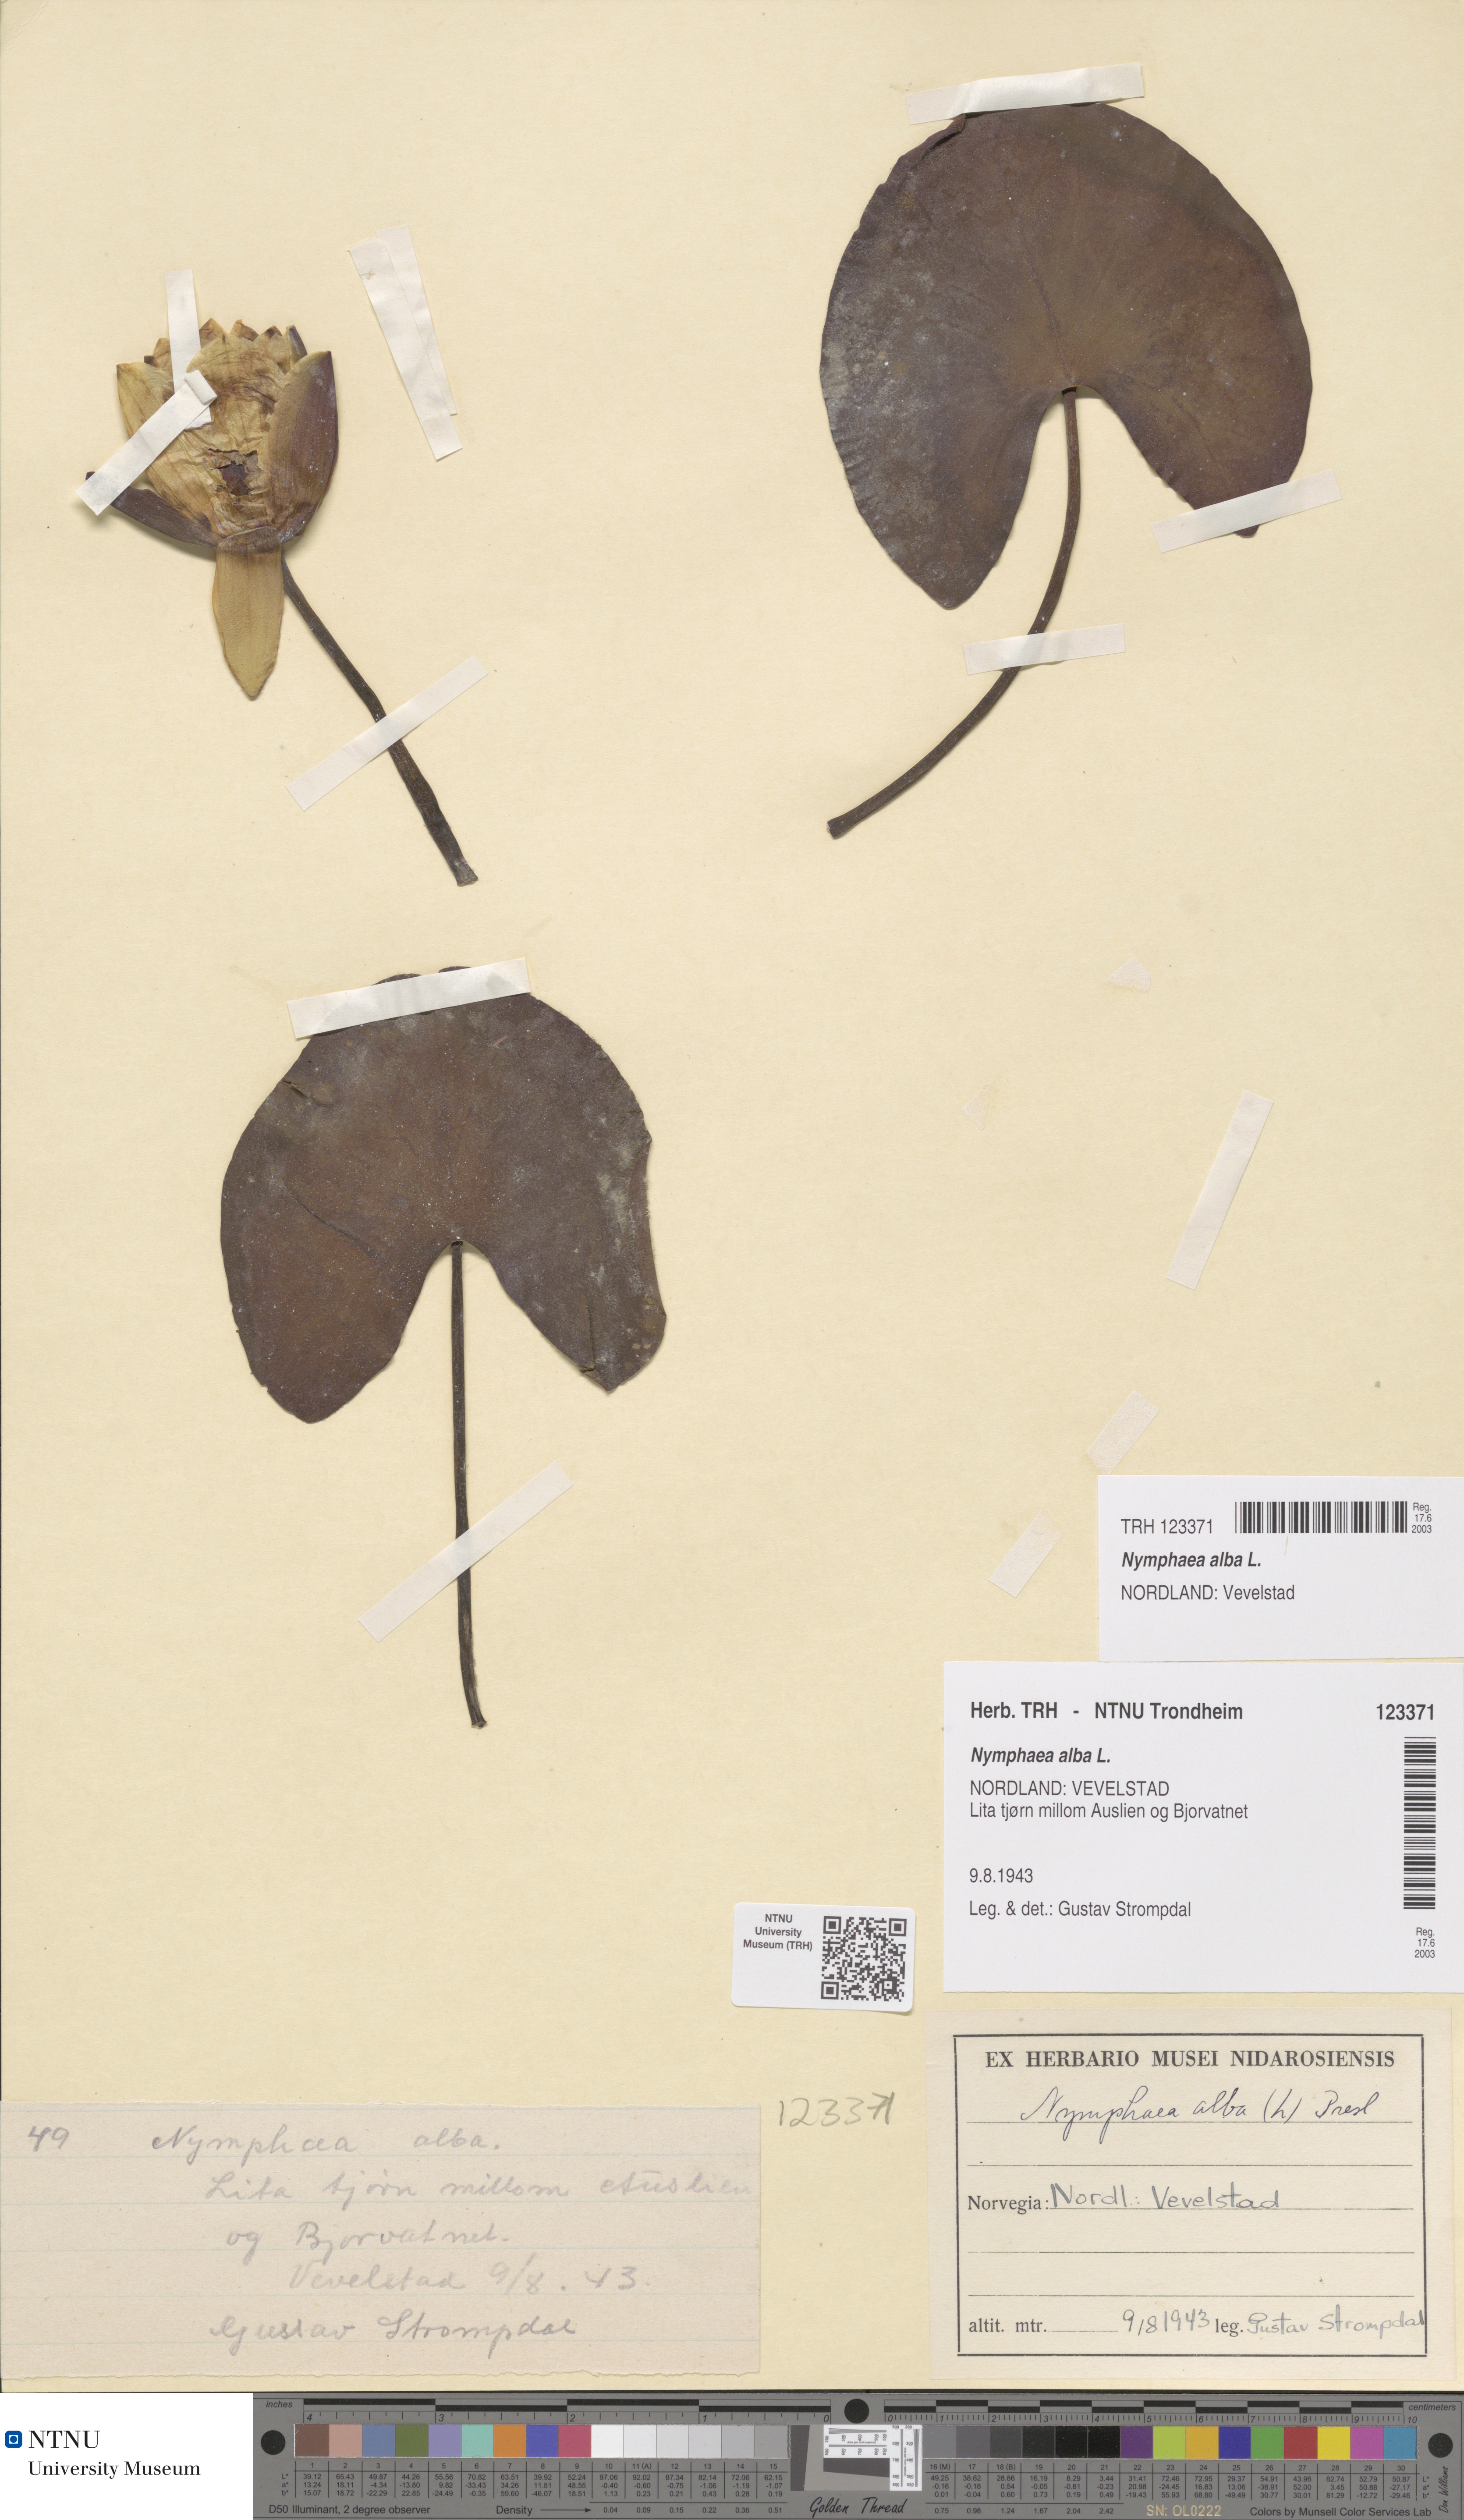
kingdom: Plantae
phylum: Tracheophyta
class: Magnoliopsida
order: Nymphaeales
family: Nymphaeaceae
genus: Nymphaea
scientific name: Nymphaea alba
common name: White water-lily
